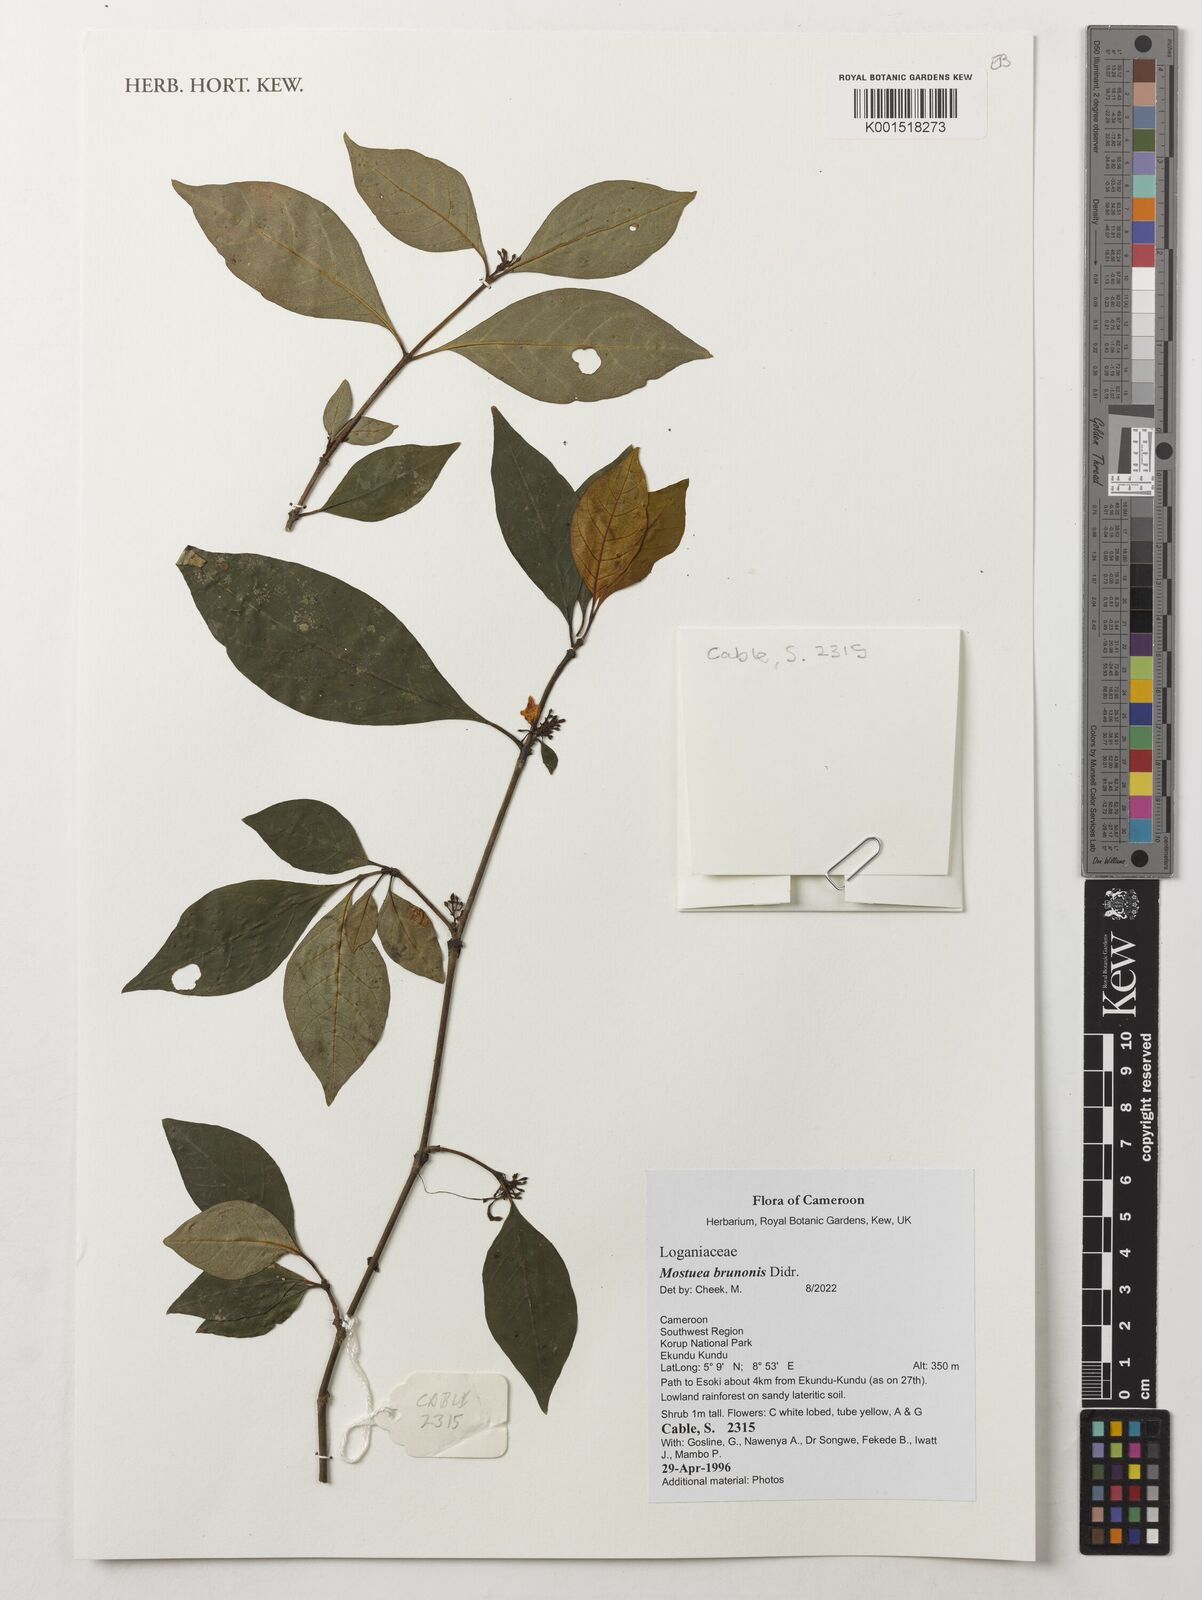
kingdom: Plantae
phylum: Tracheophyta
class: Magnoliopsida
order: Gentianales
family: Gelsemiaceae
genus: Mostuea
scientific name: Mostuea brunonis
